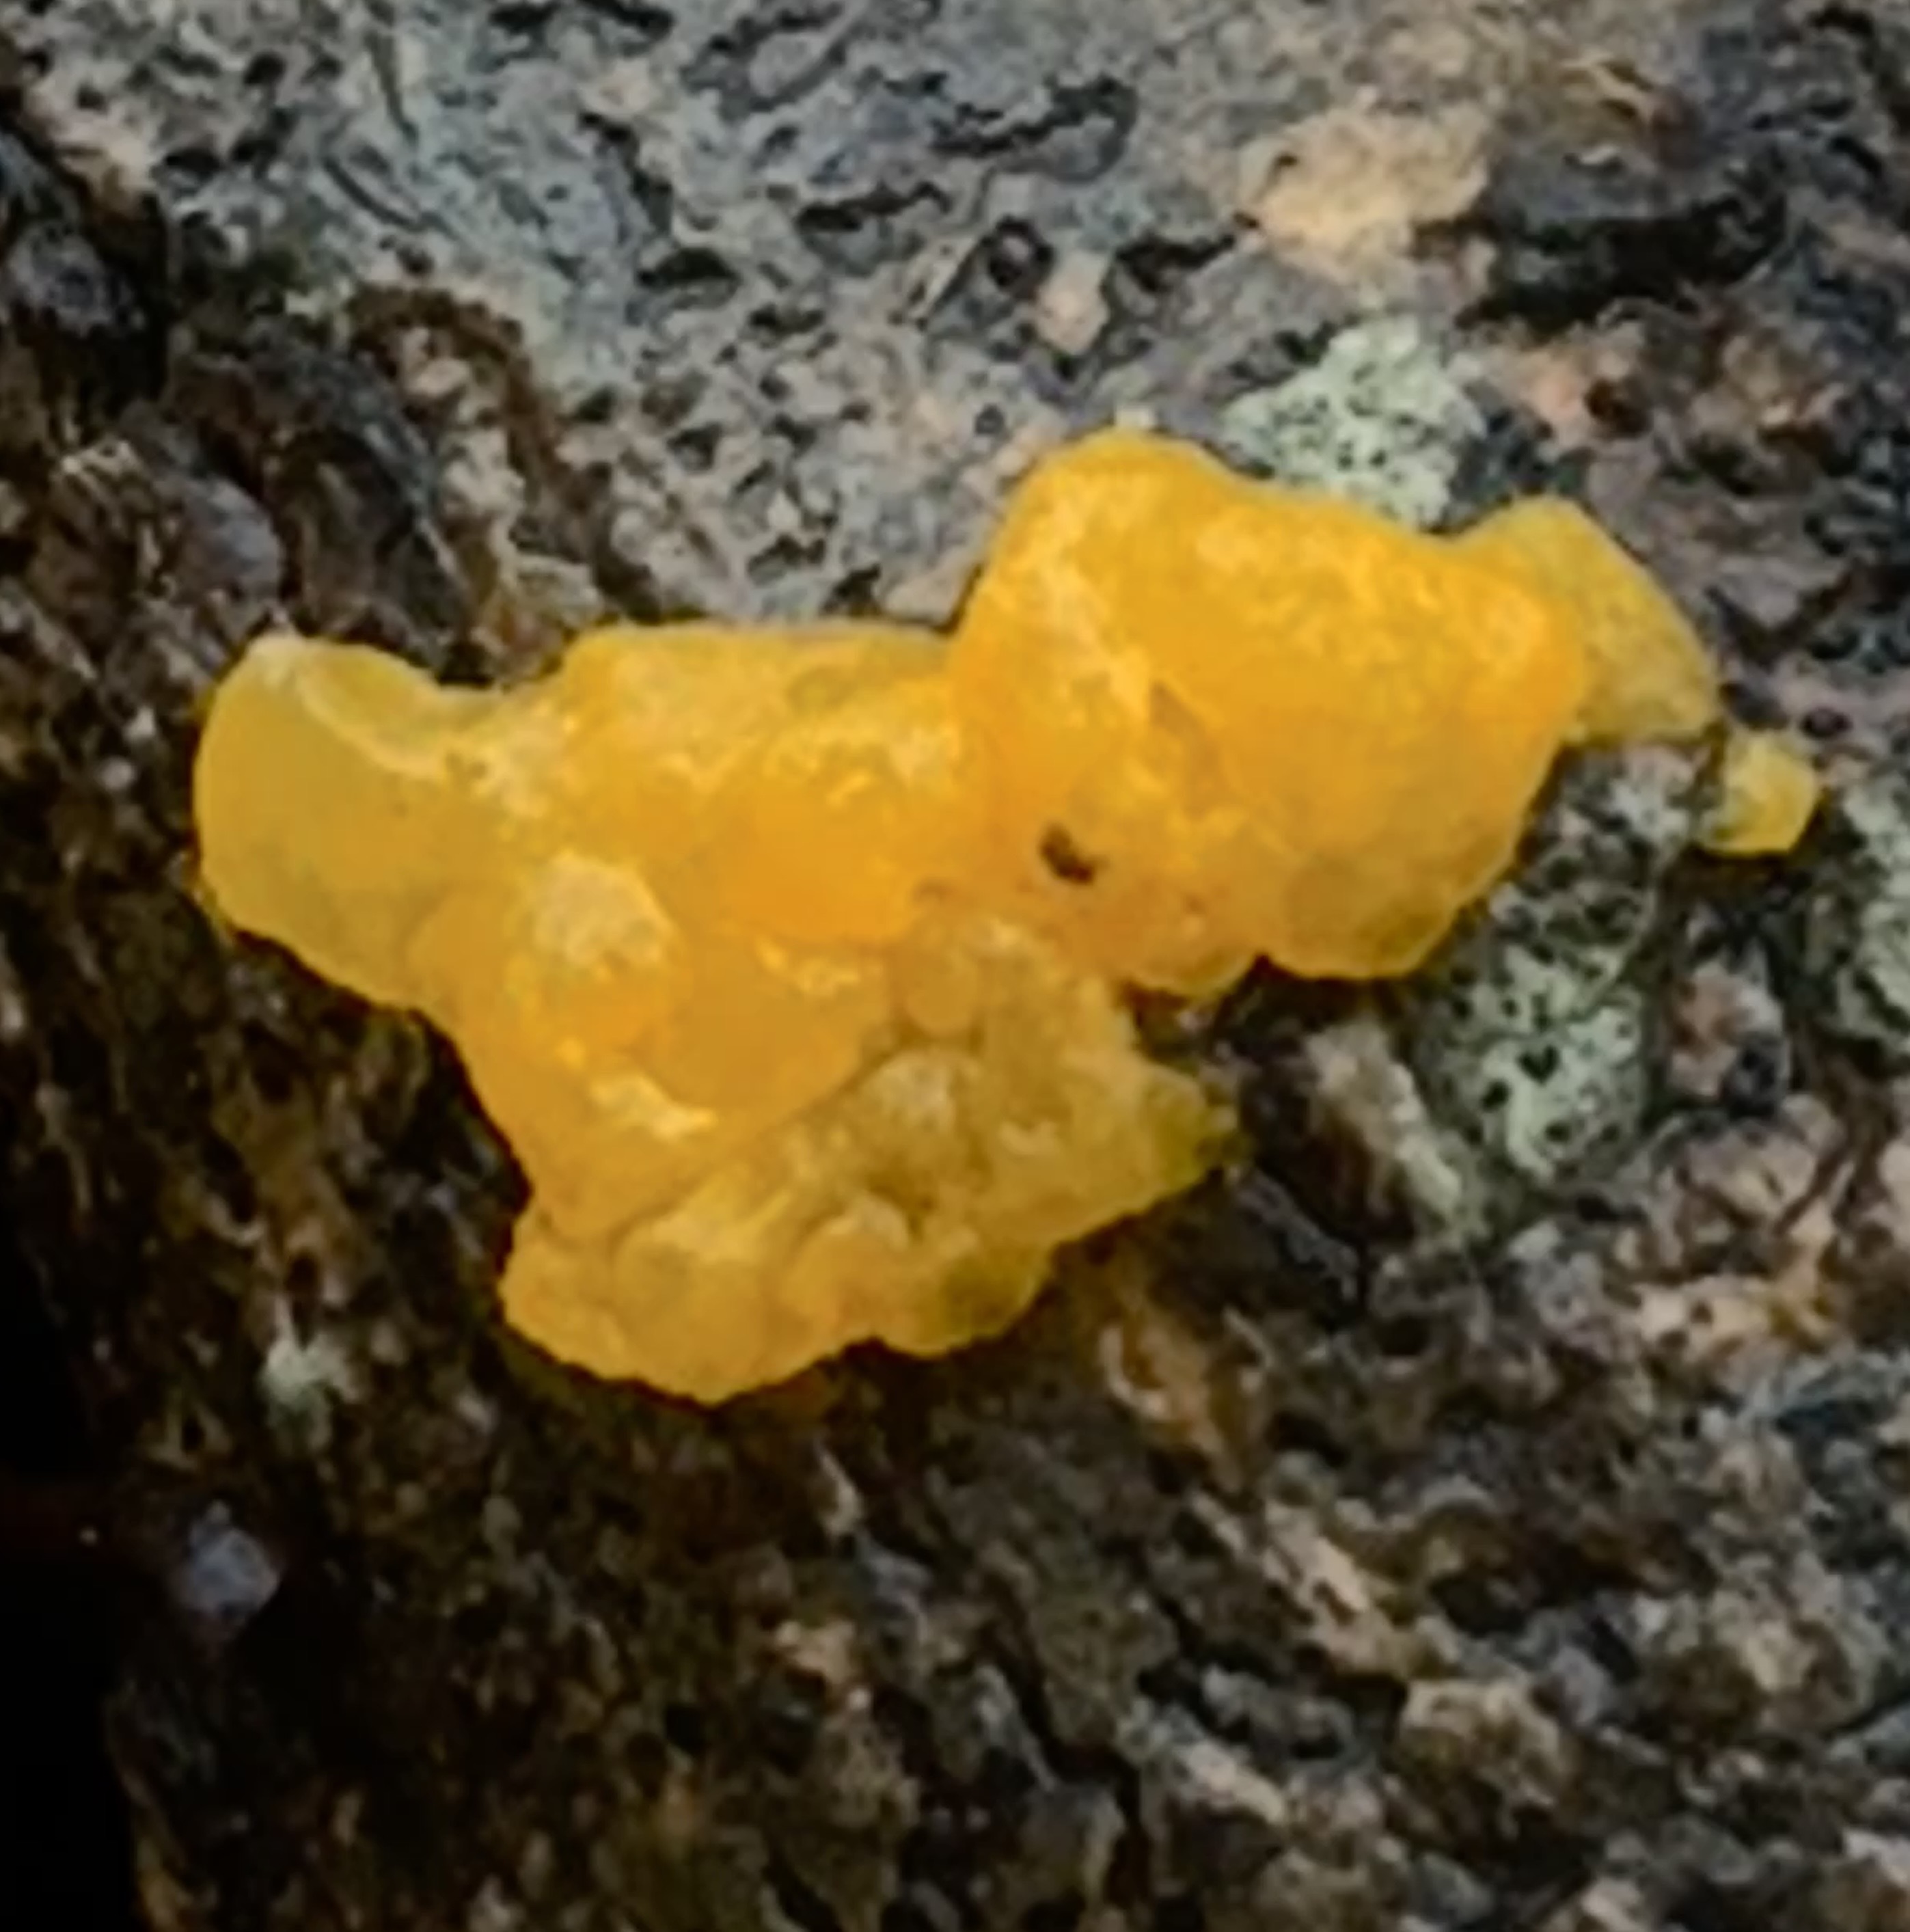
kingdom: Fungi
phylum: Basidiomycota
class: Tremellomycetes
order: Tremellales
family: Tremellaceae
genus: Tremella
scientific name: Tremella mesenterica
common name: gul bævresvamp
